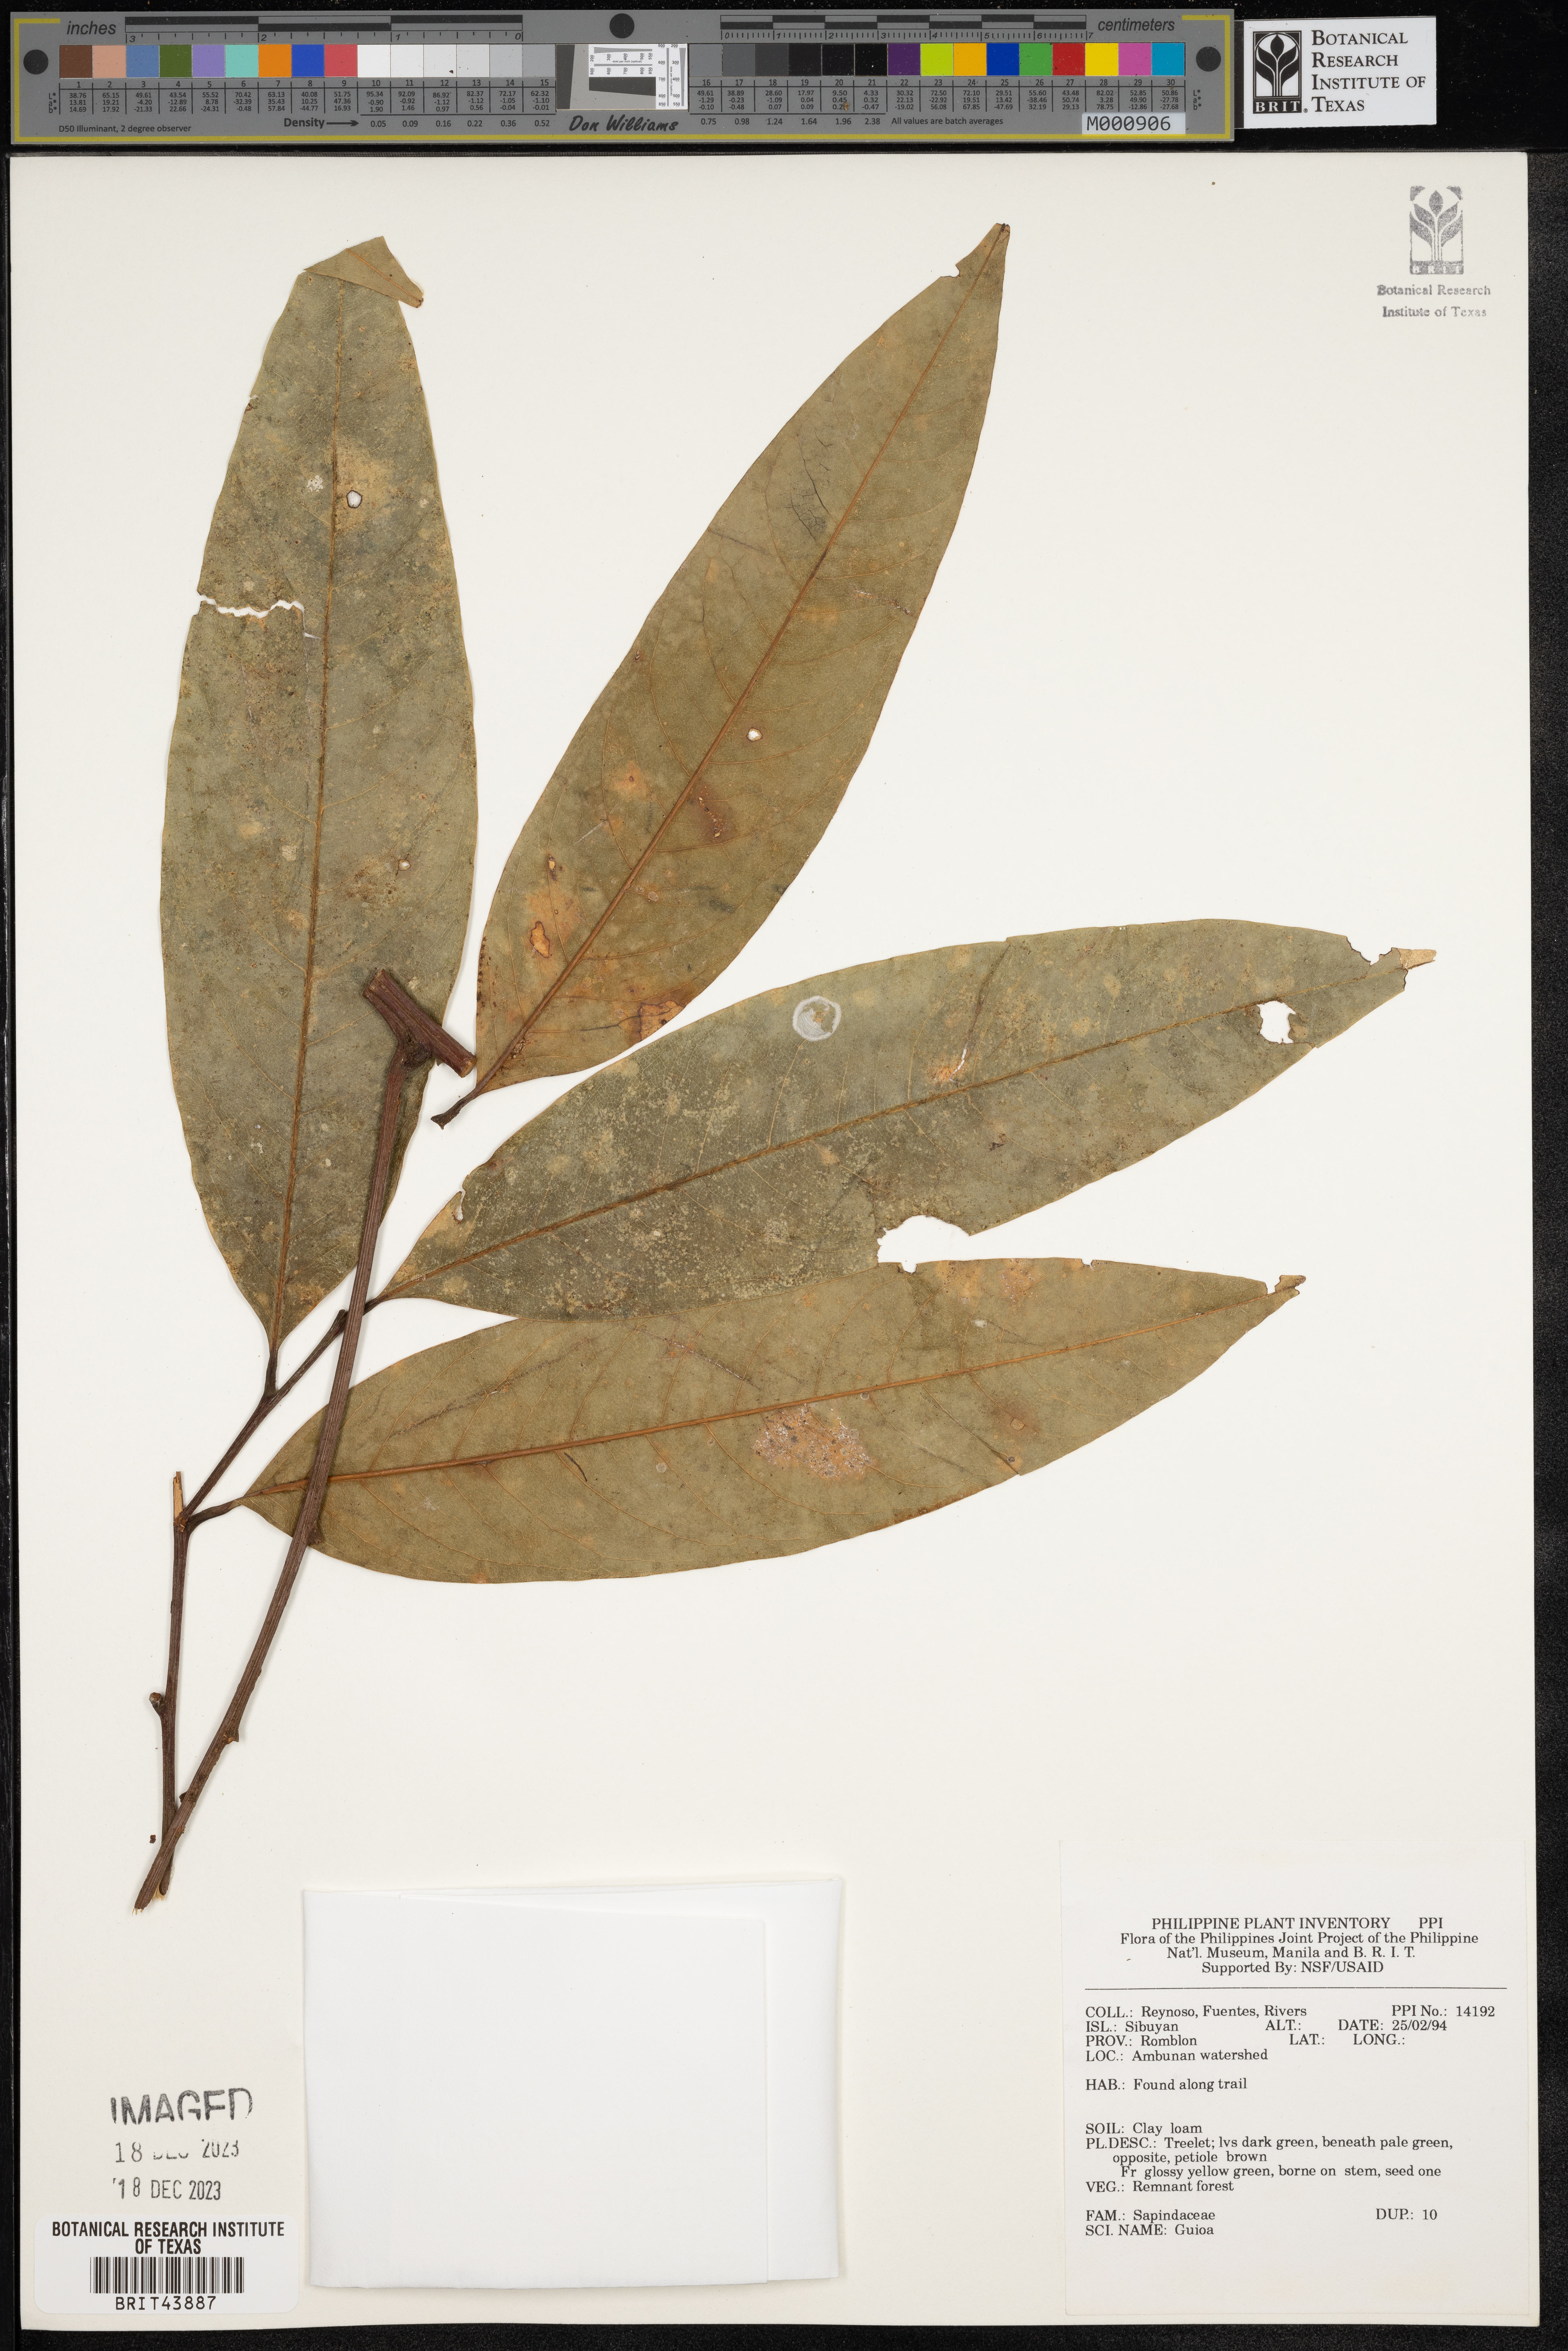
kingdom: Plantae
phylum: Tracheophyta
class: Magnoliopsida
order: Sapindales
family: Sapindaceae
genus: Guioa
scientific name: Guioa
